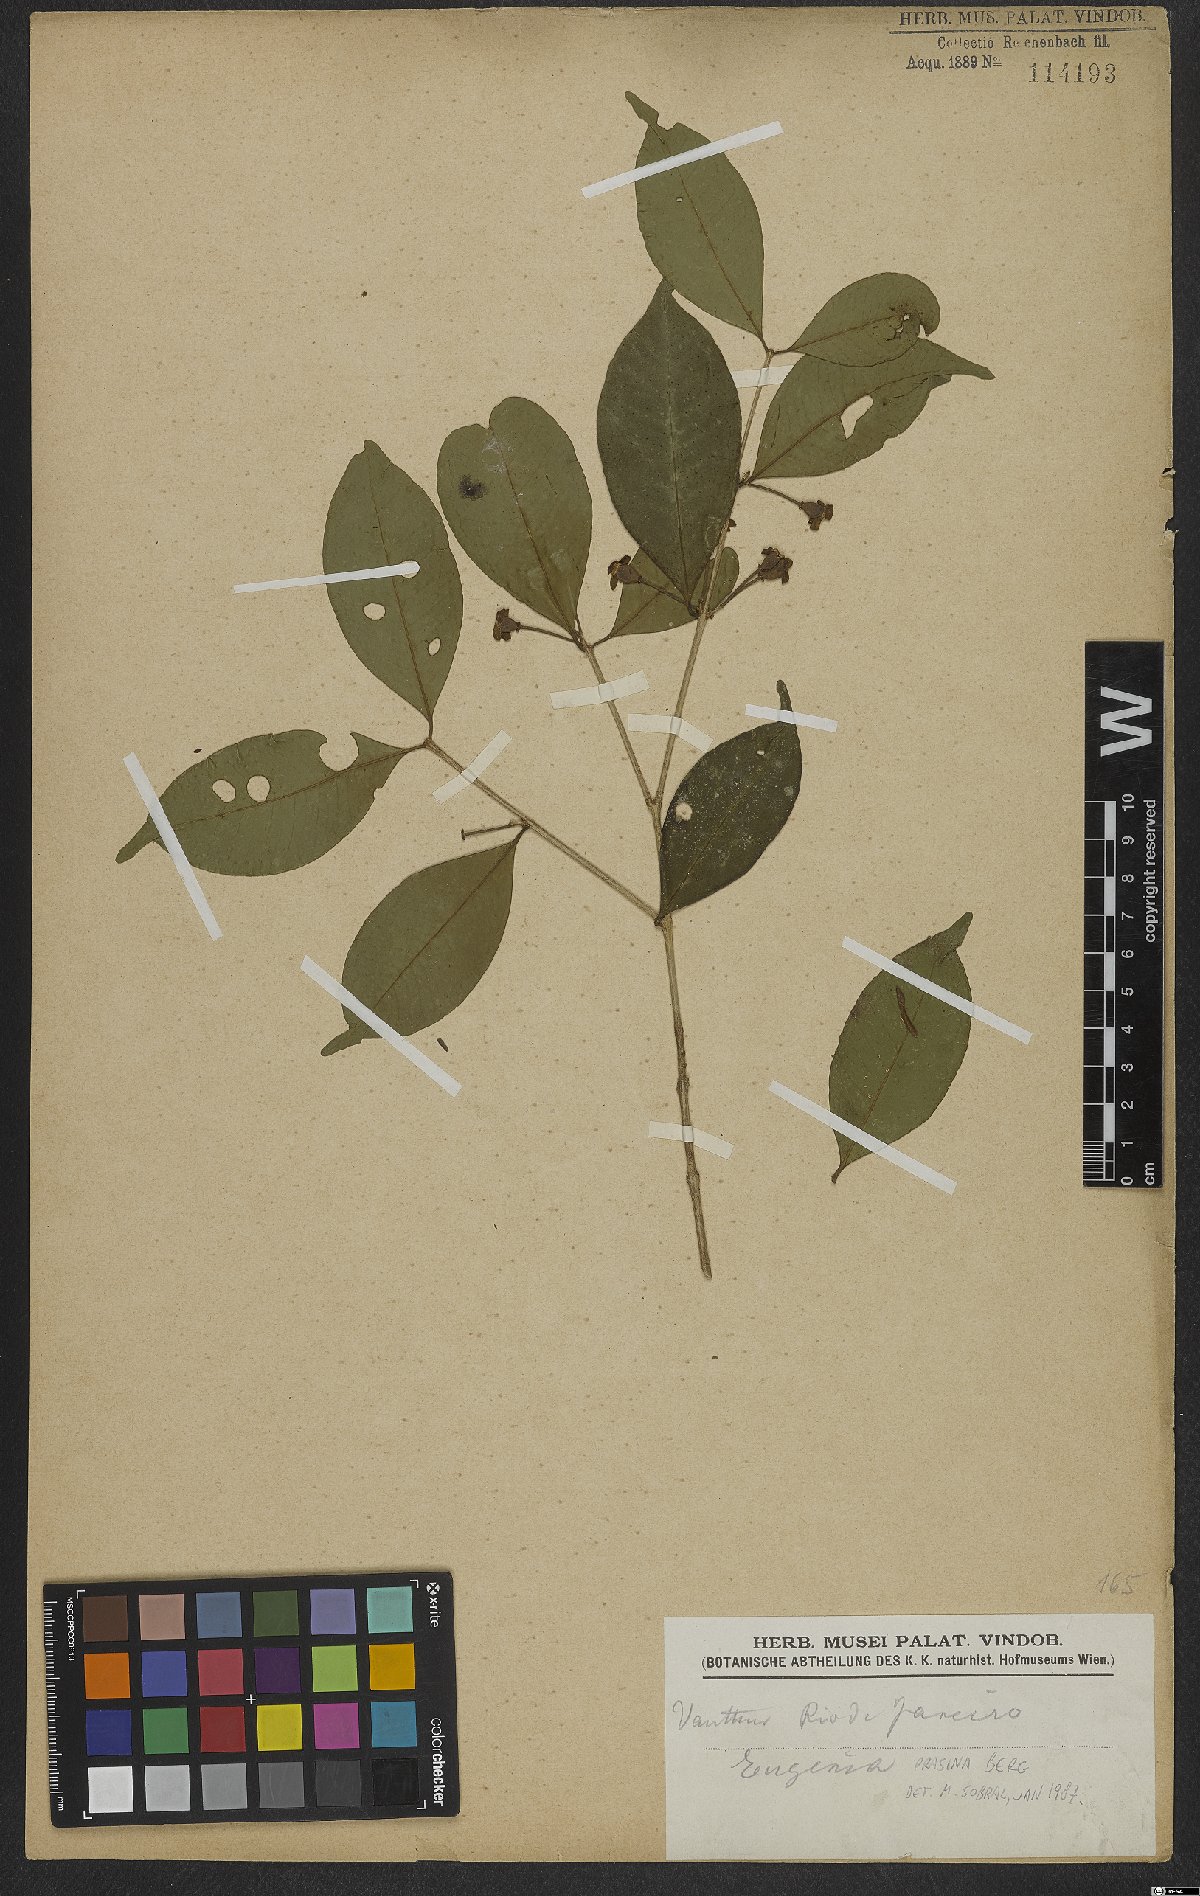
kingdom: Plantae
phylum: Tracheophyta
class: Magnoliopsida
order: Myrtales
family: Myrtaceae
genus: Eugenia
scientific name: Eugenia prasina
